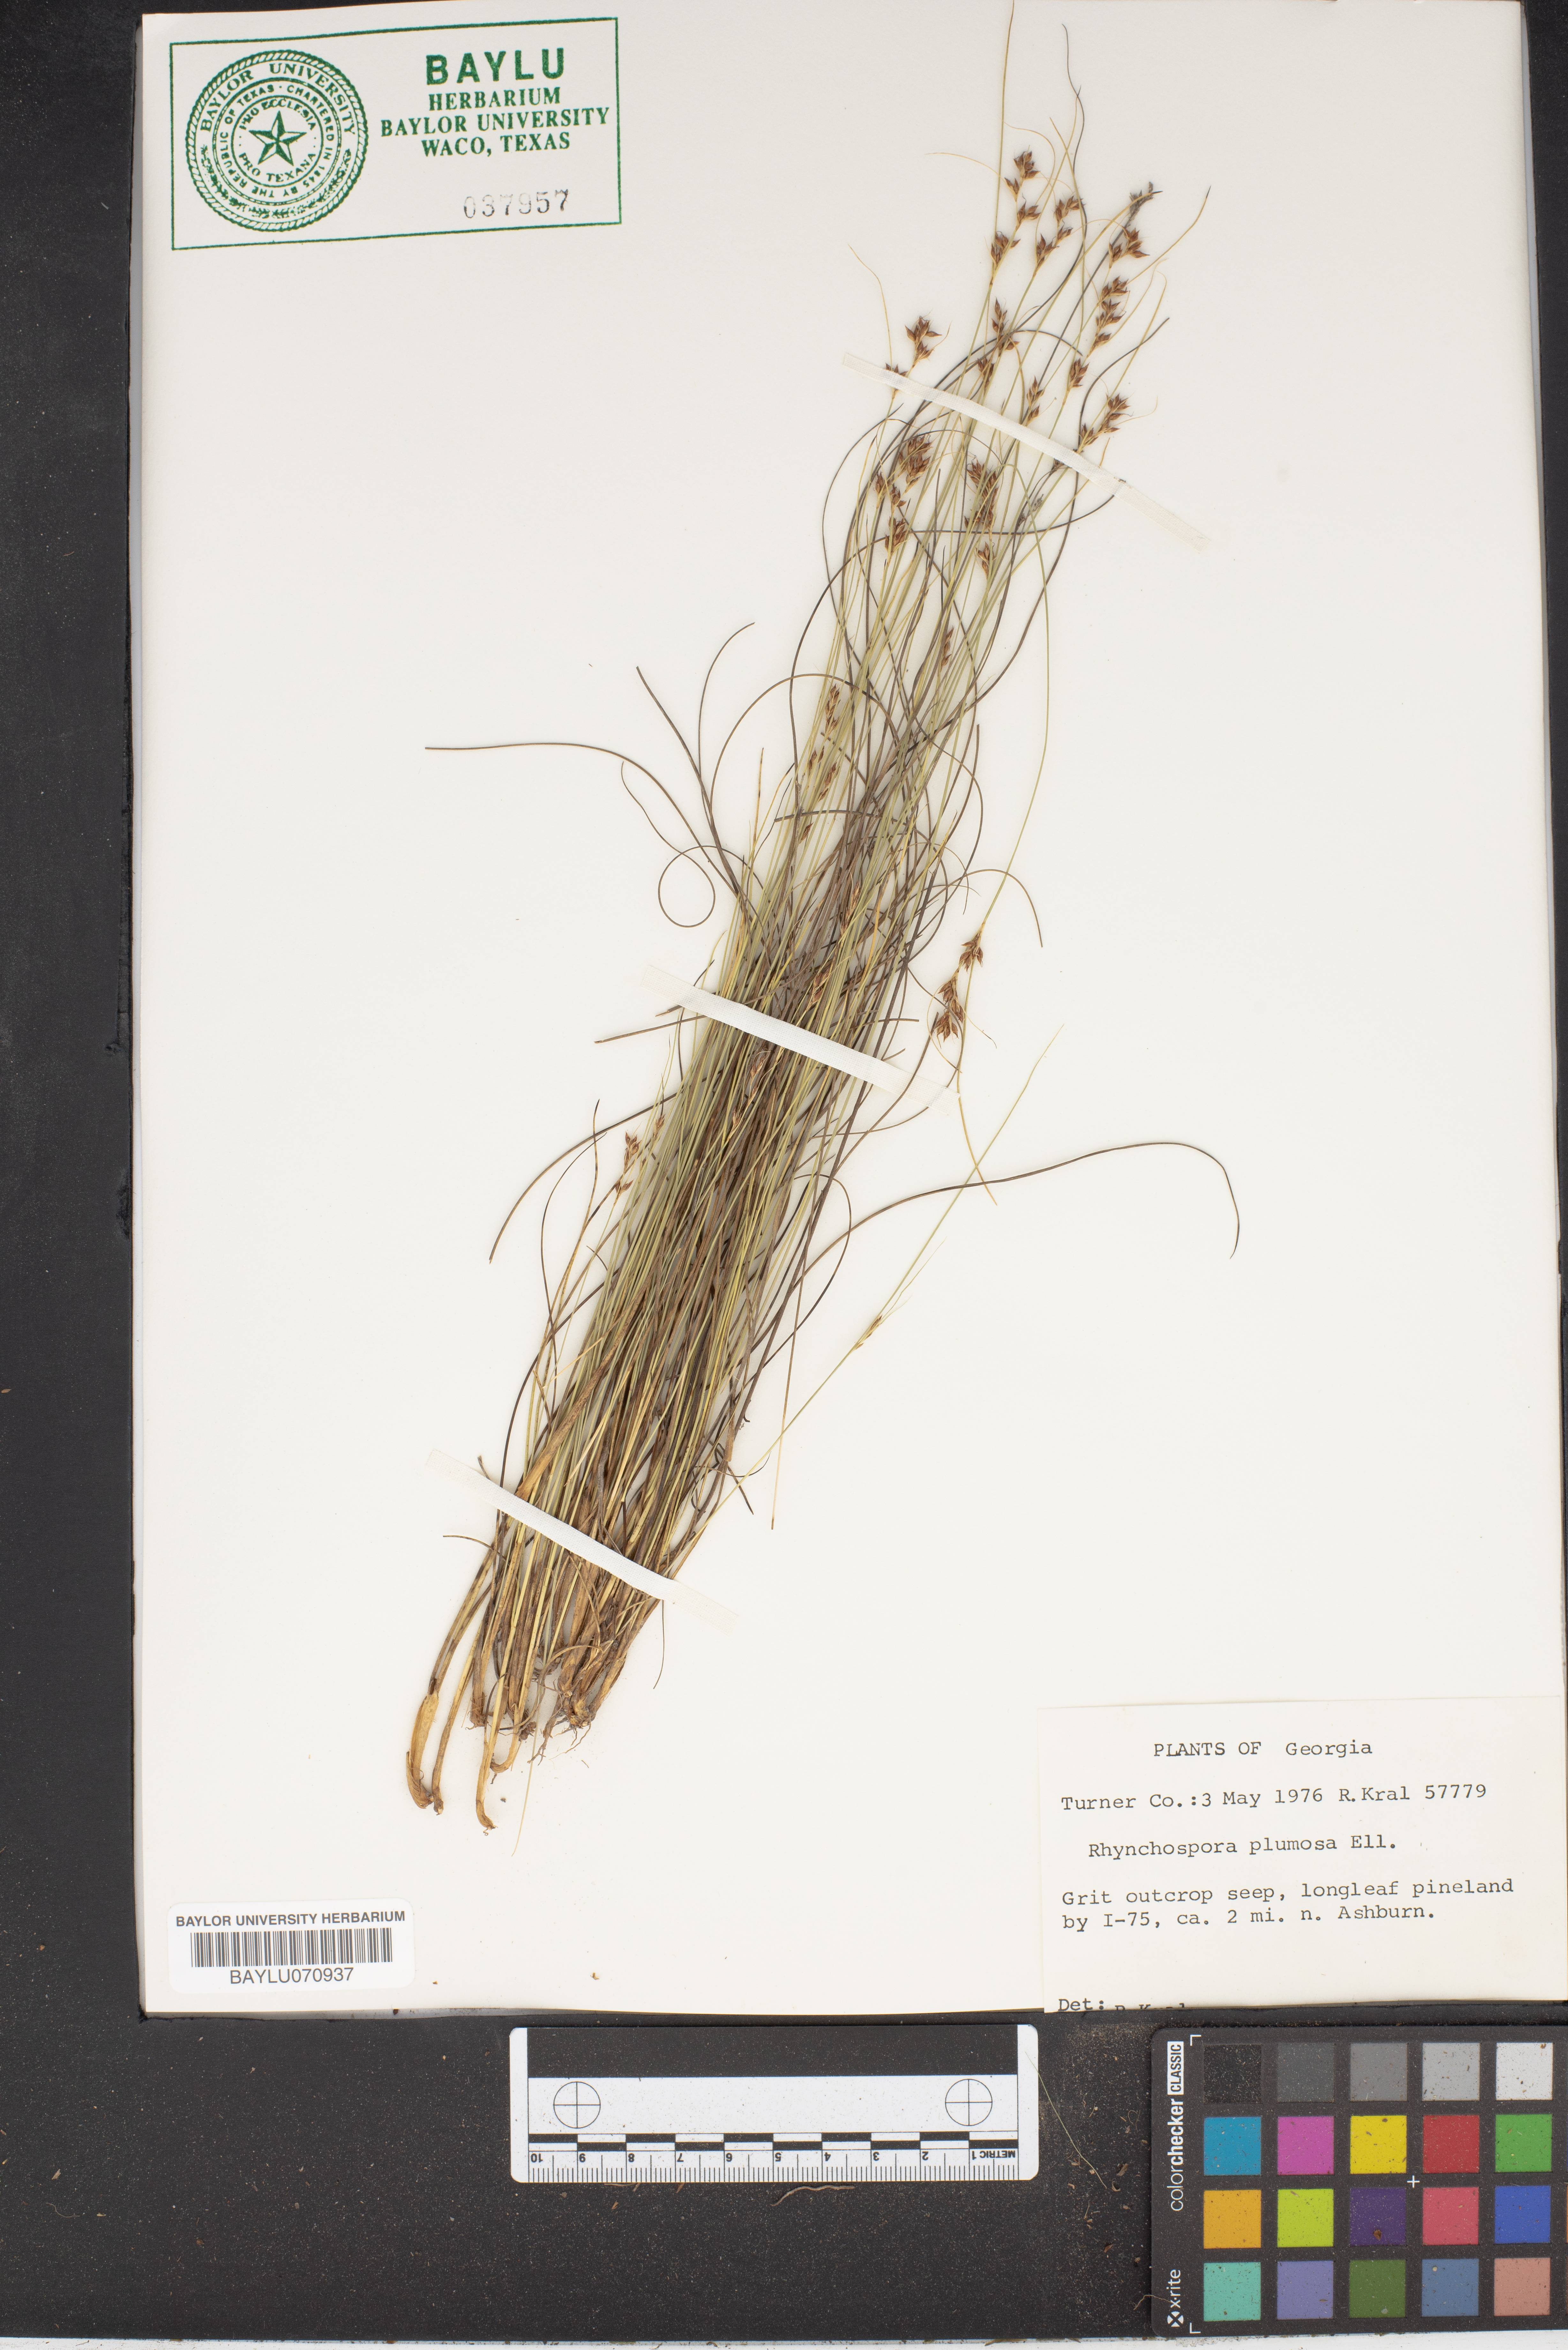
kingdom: Plantae
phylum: Tracheophyta
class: Liliopsida
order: Poales
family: Cyperaceae
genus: Rhynchospora
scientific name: Rhynchospora plumosa
